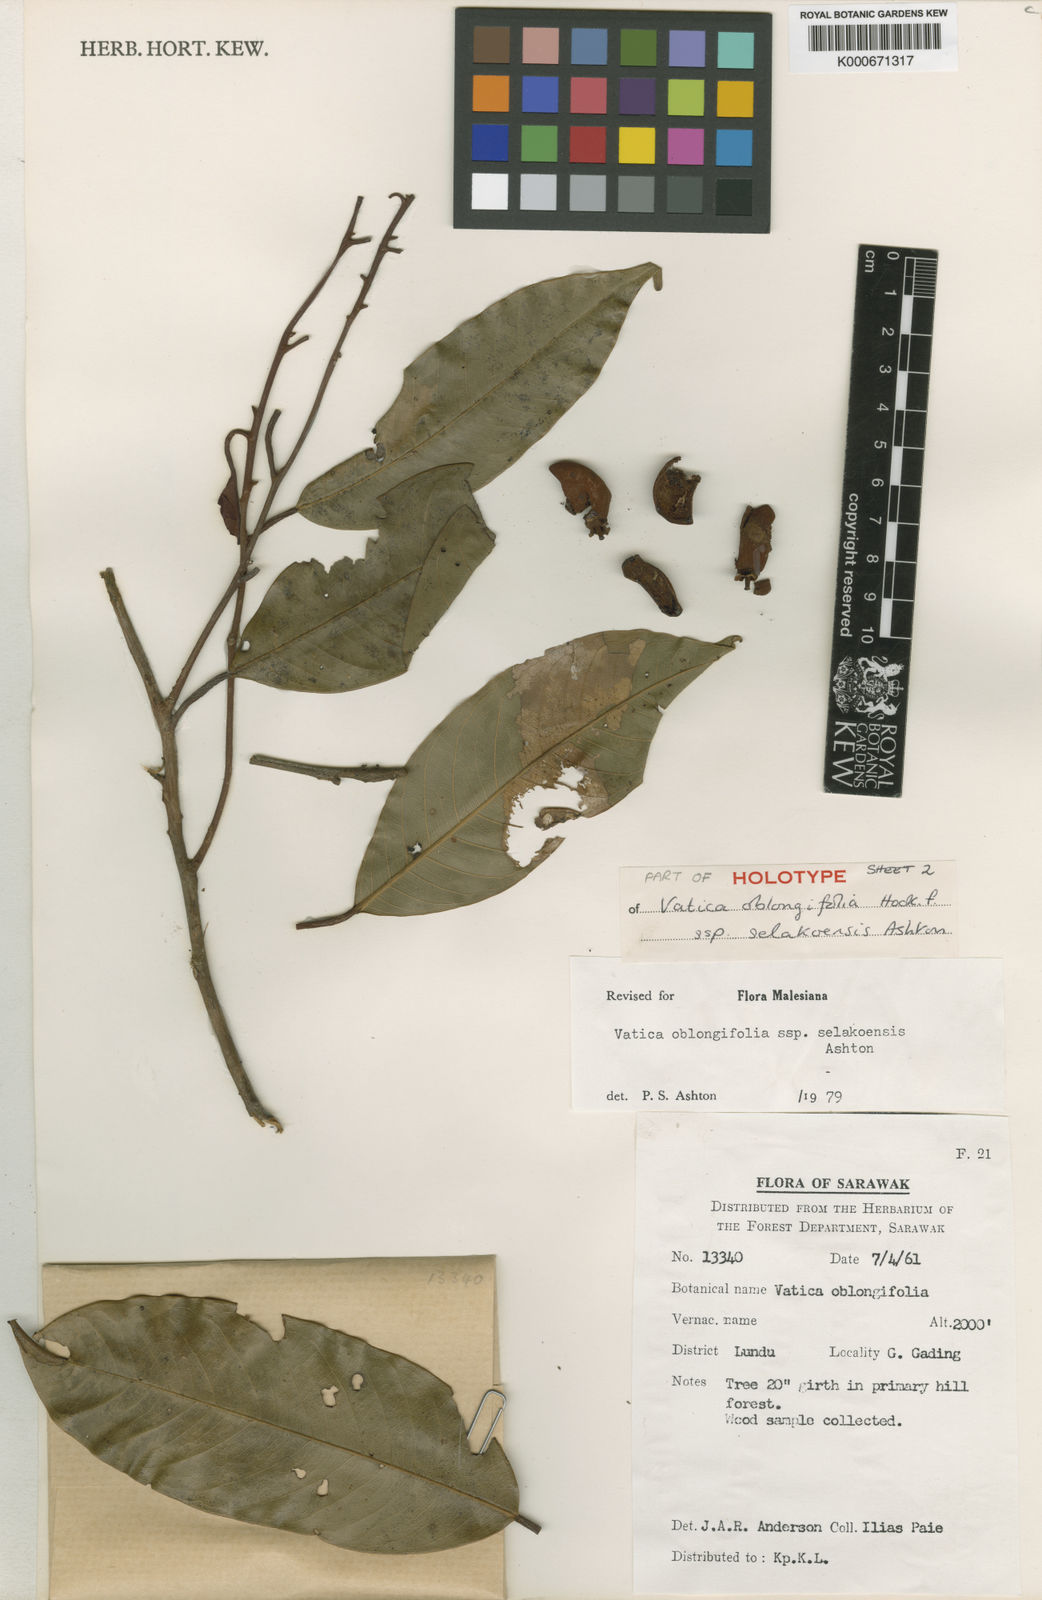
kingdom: Plantae
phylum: Tracheophyta
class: Magnoliopsida
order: Malvales
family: Dipterocarpaceae
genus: Vatica
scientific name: Vatica dulitensis
